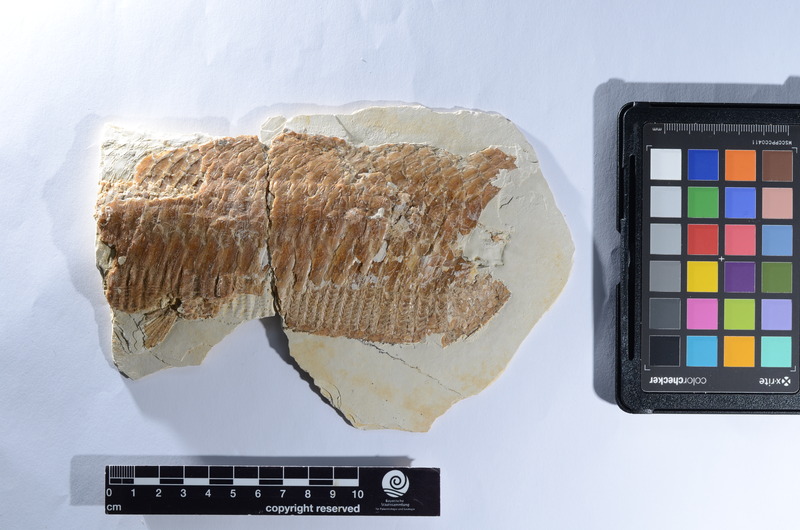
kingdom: Animalia
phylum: Chordata
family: Aspidorhynchidae
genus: Aspidorhynchus
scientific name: Aspidorhynchus acutirostris
